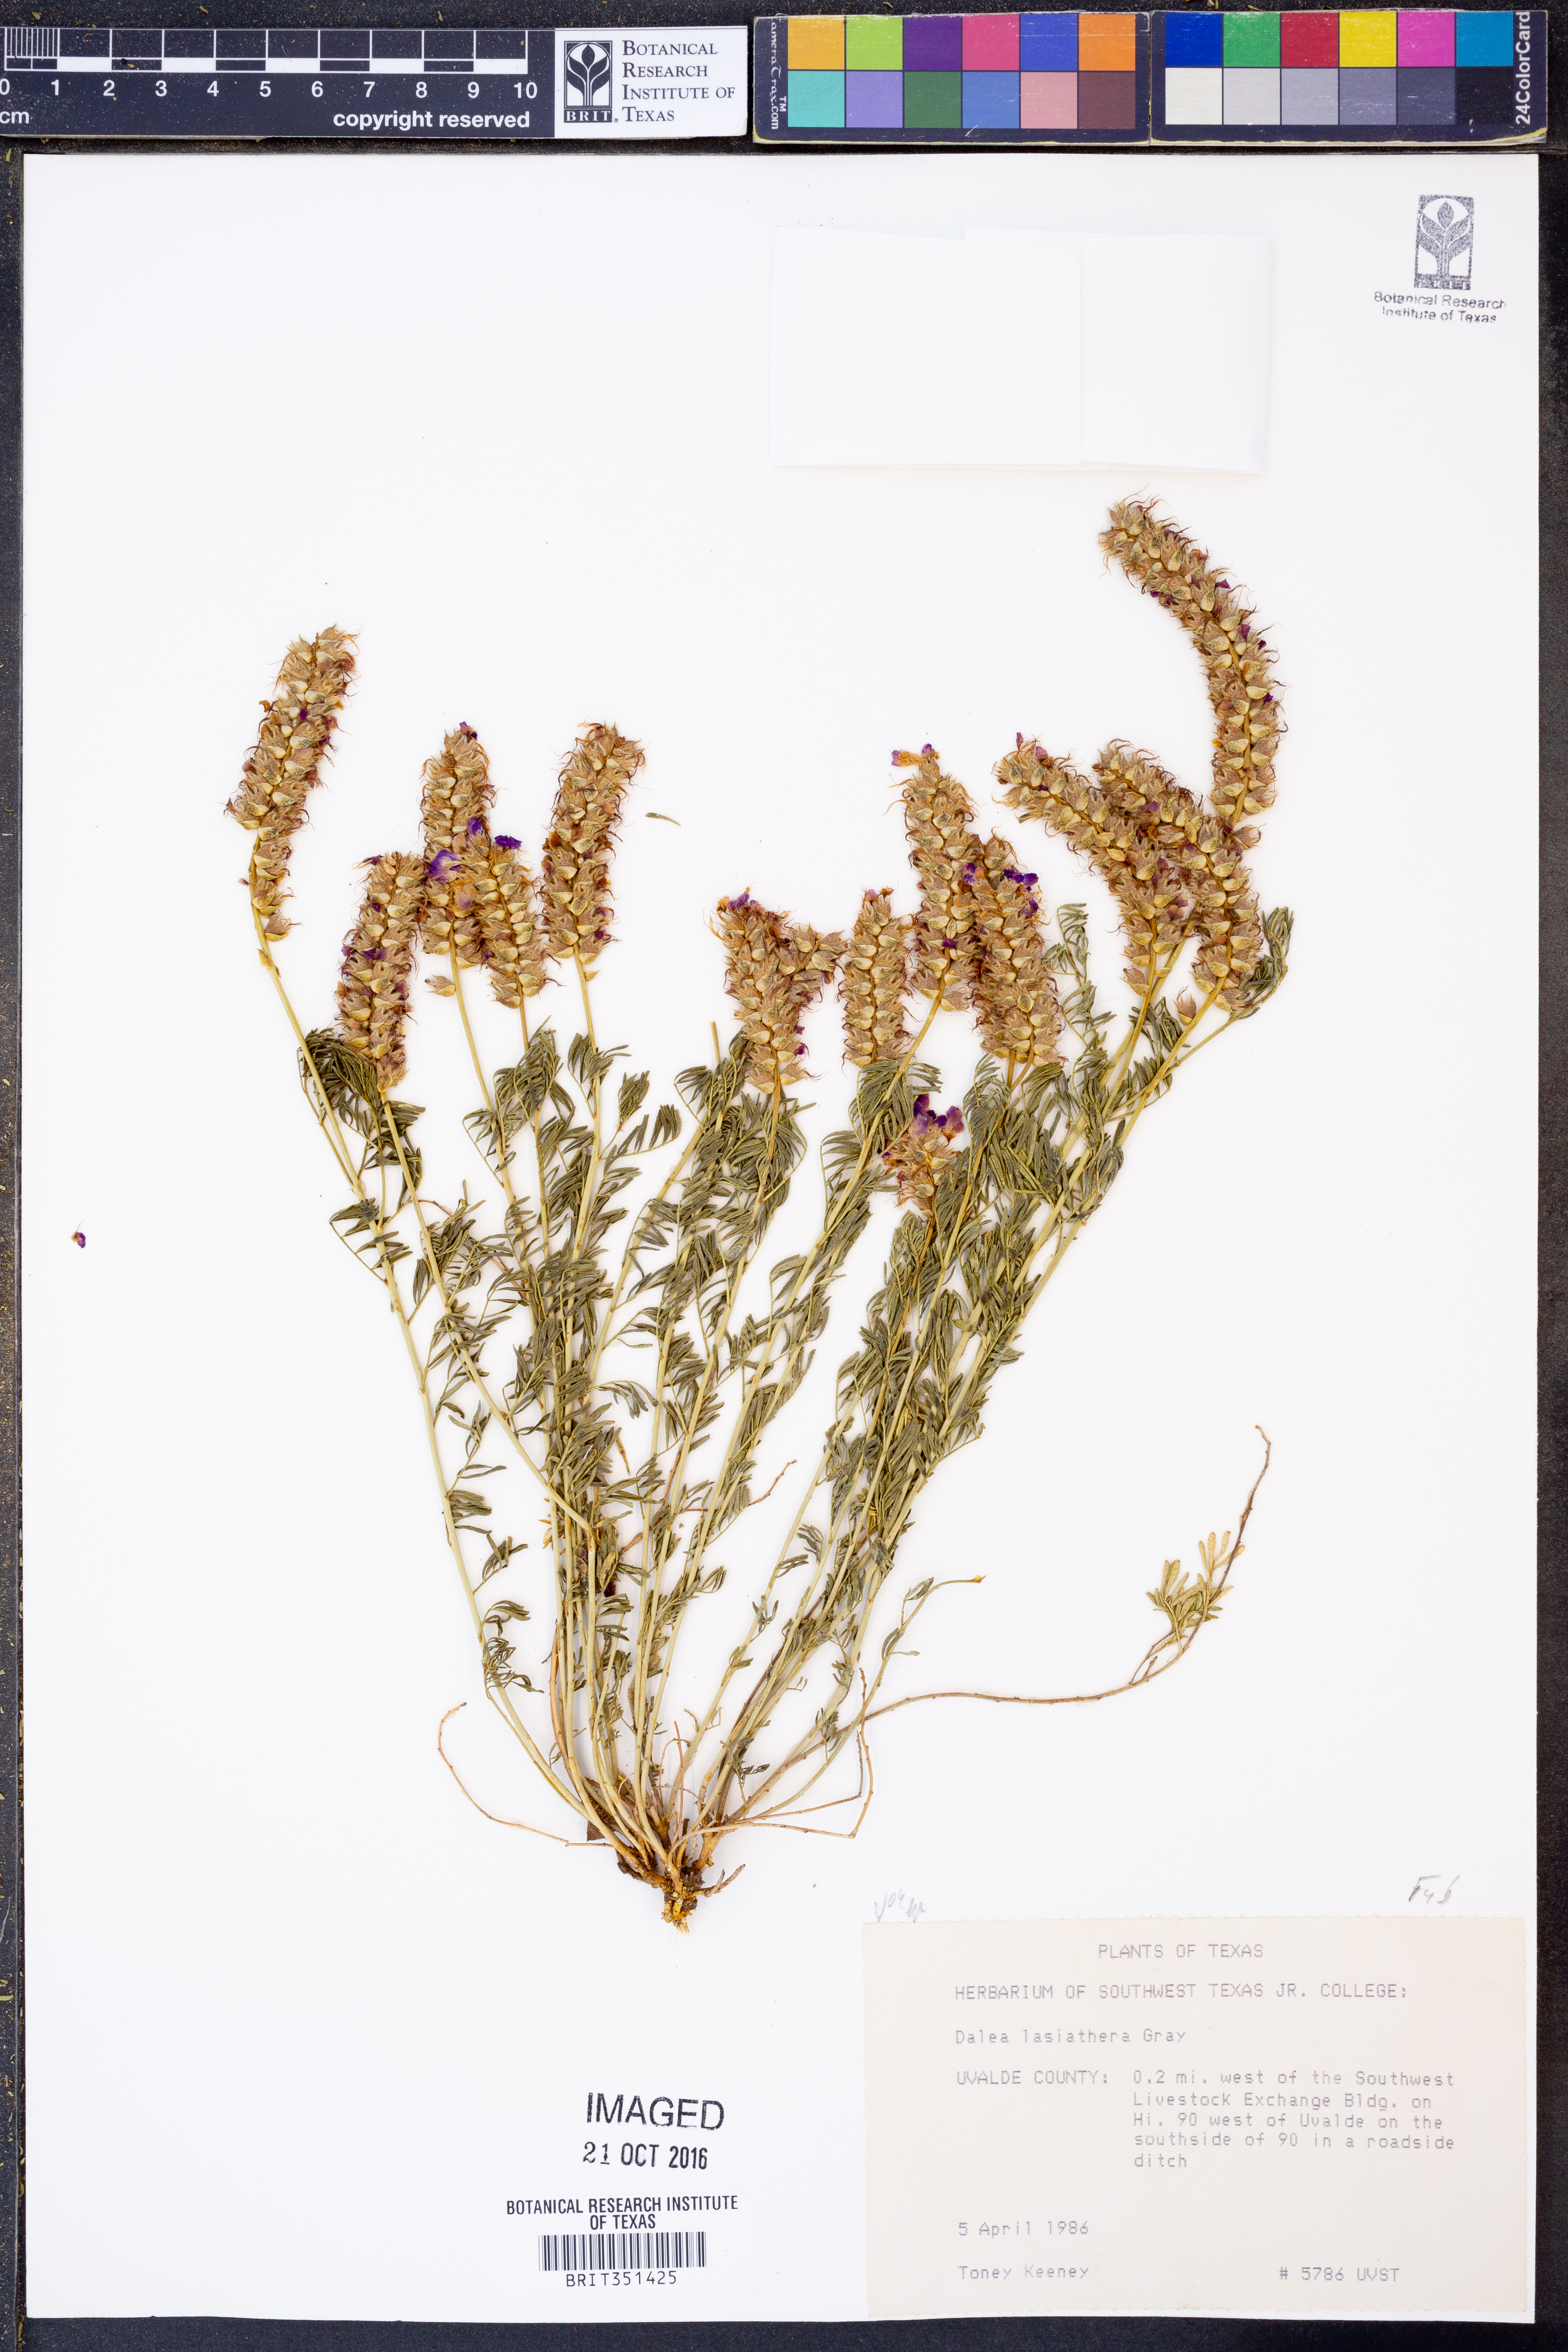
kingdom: Plantae
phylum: Tracheophyta
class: Magnoliopsida
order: Fabales
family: Fabaceae
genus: Dalea
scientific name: Dalea lasiathera
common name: Purple prairie-clover
